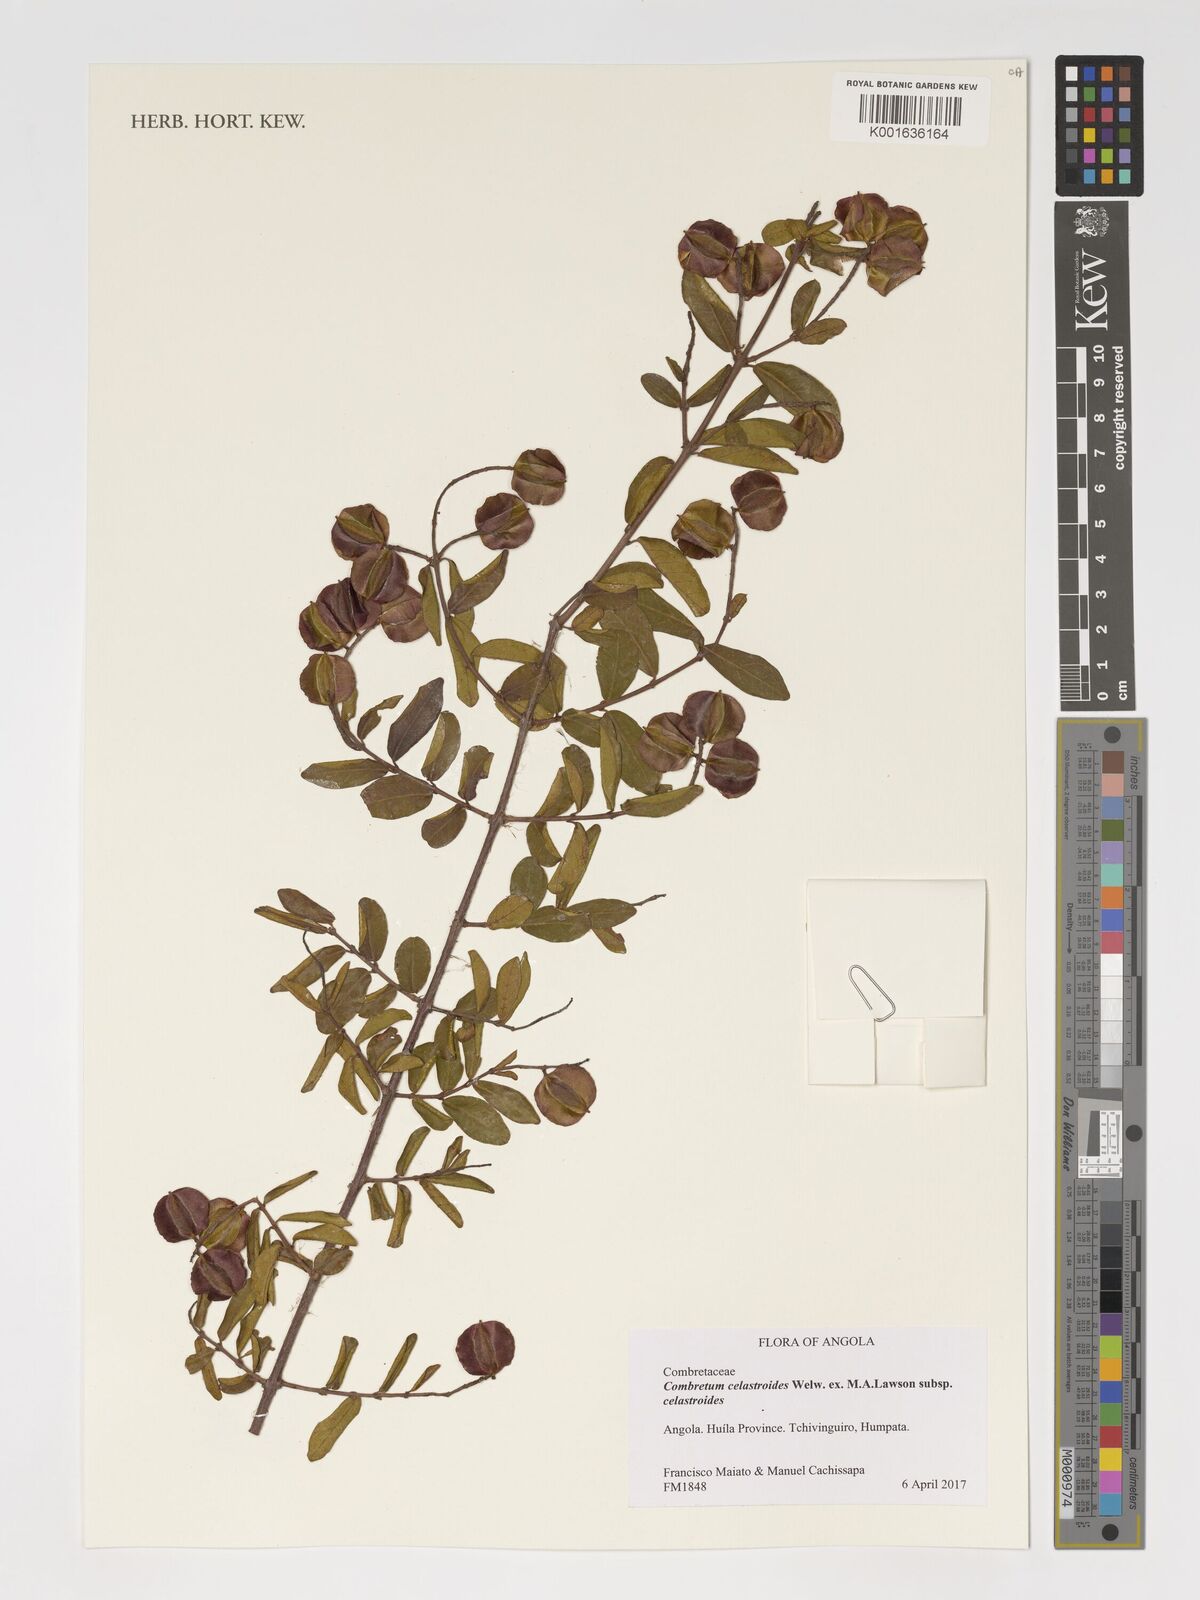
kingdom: Plantae
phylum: Tracheophyta
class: Magnoliopsida
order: Myrtales
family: Combretaceae
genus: Combretum
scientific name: Combretum celastroides
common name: Jesse-bush combretum
